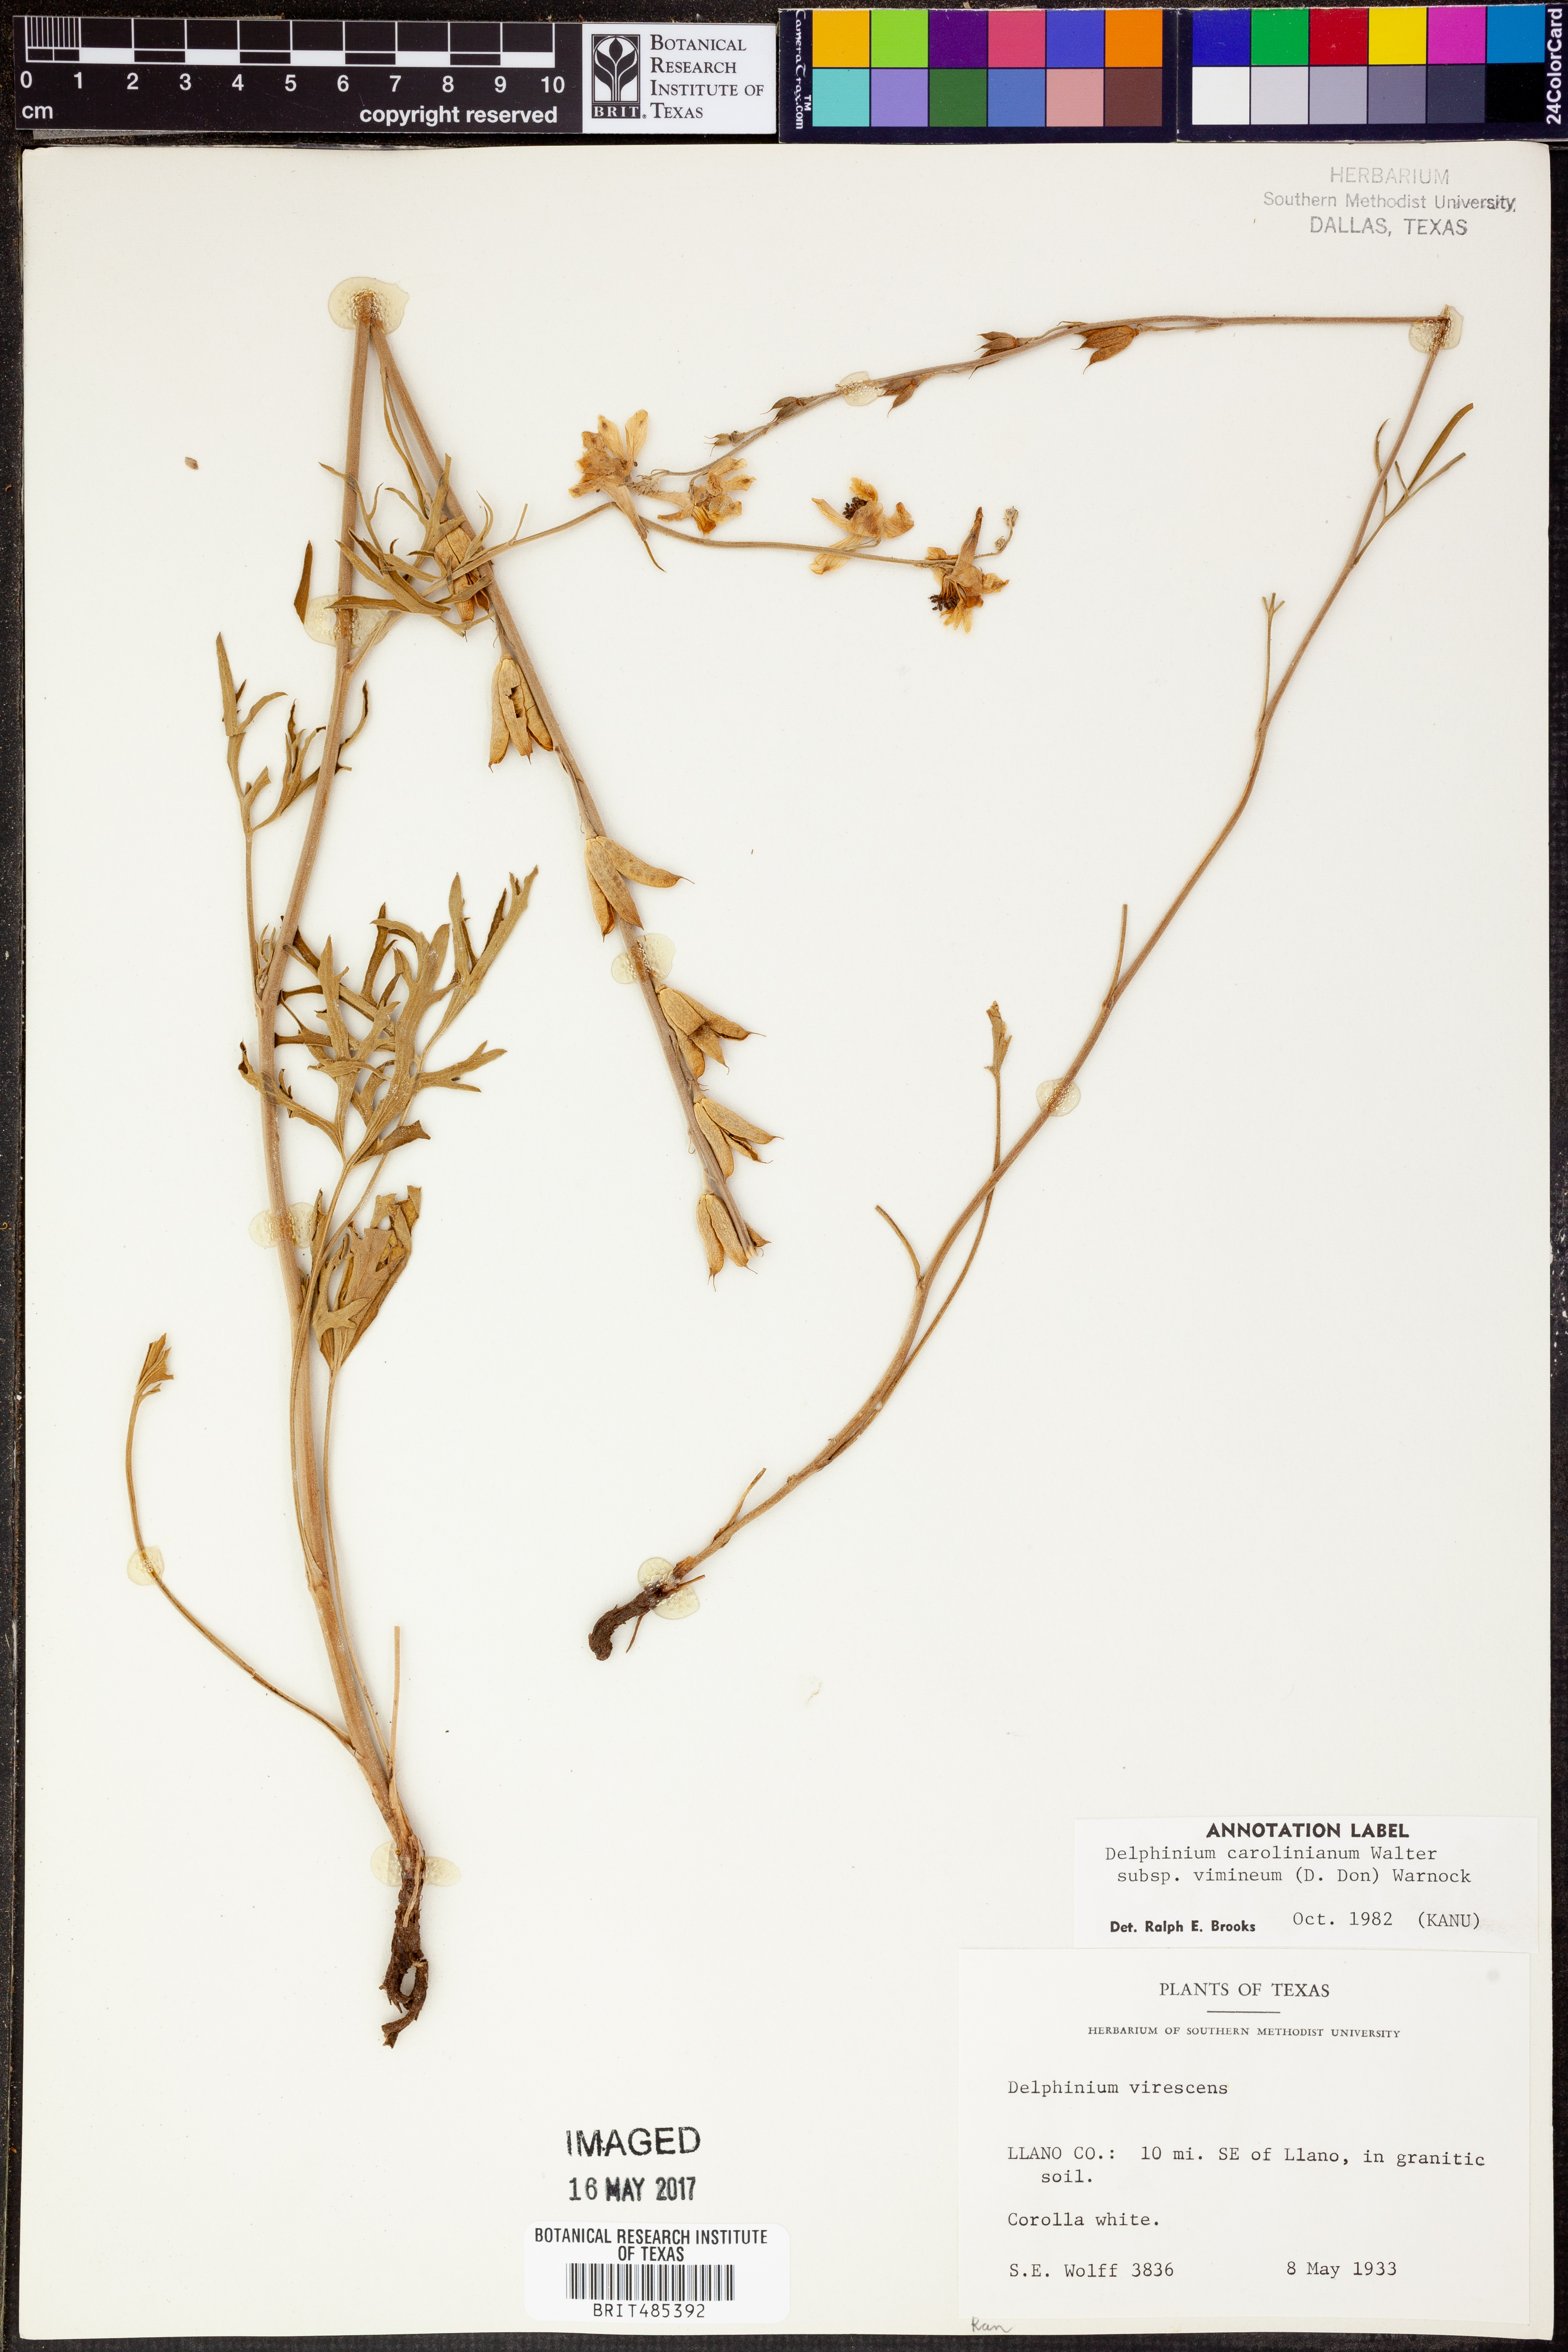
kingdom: Plantae
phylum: Tracheophyta
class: Magnoliopsida
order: Ranunculales
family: Ranunculaceae
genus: Delphinium
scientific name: Delphinium carolinianum
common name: Carolina larkspur
